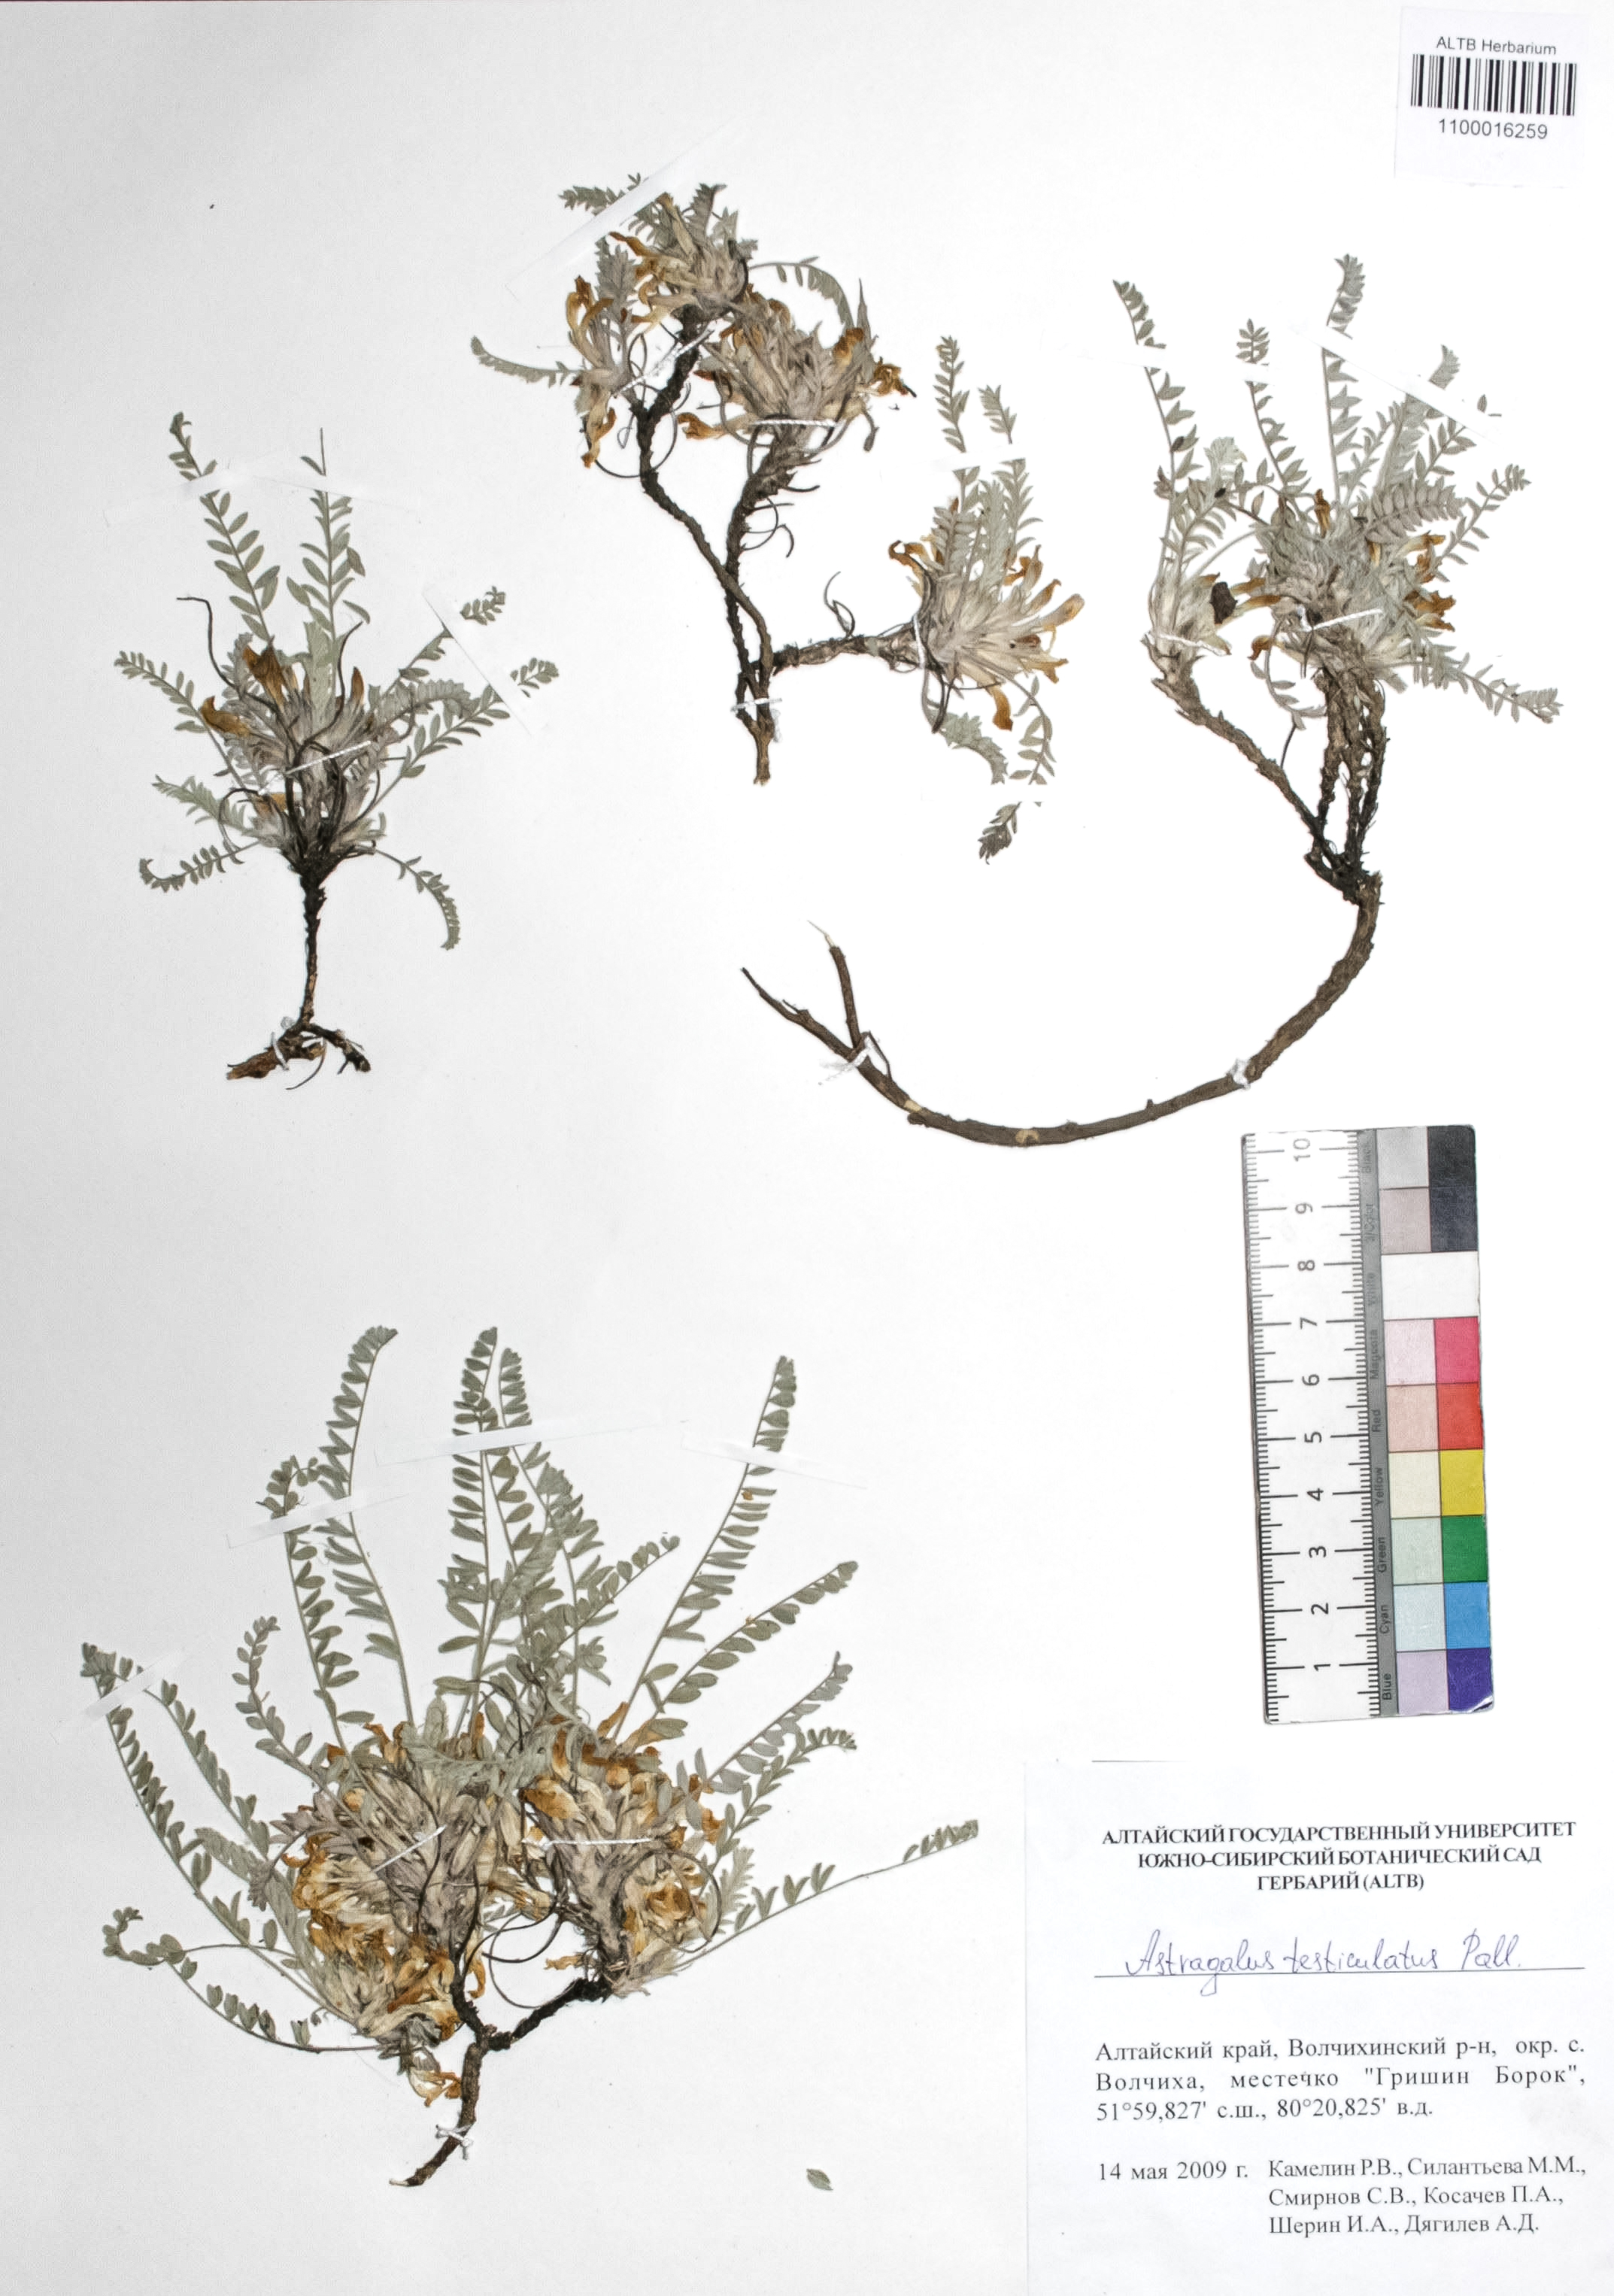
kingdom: Plantae
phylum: Tracheophyta
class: Magnoliopsida
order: Fabales
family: Fabaceae
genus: Astragalus
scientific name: Astragalus testiculatus
